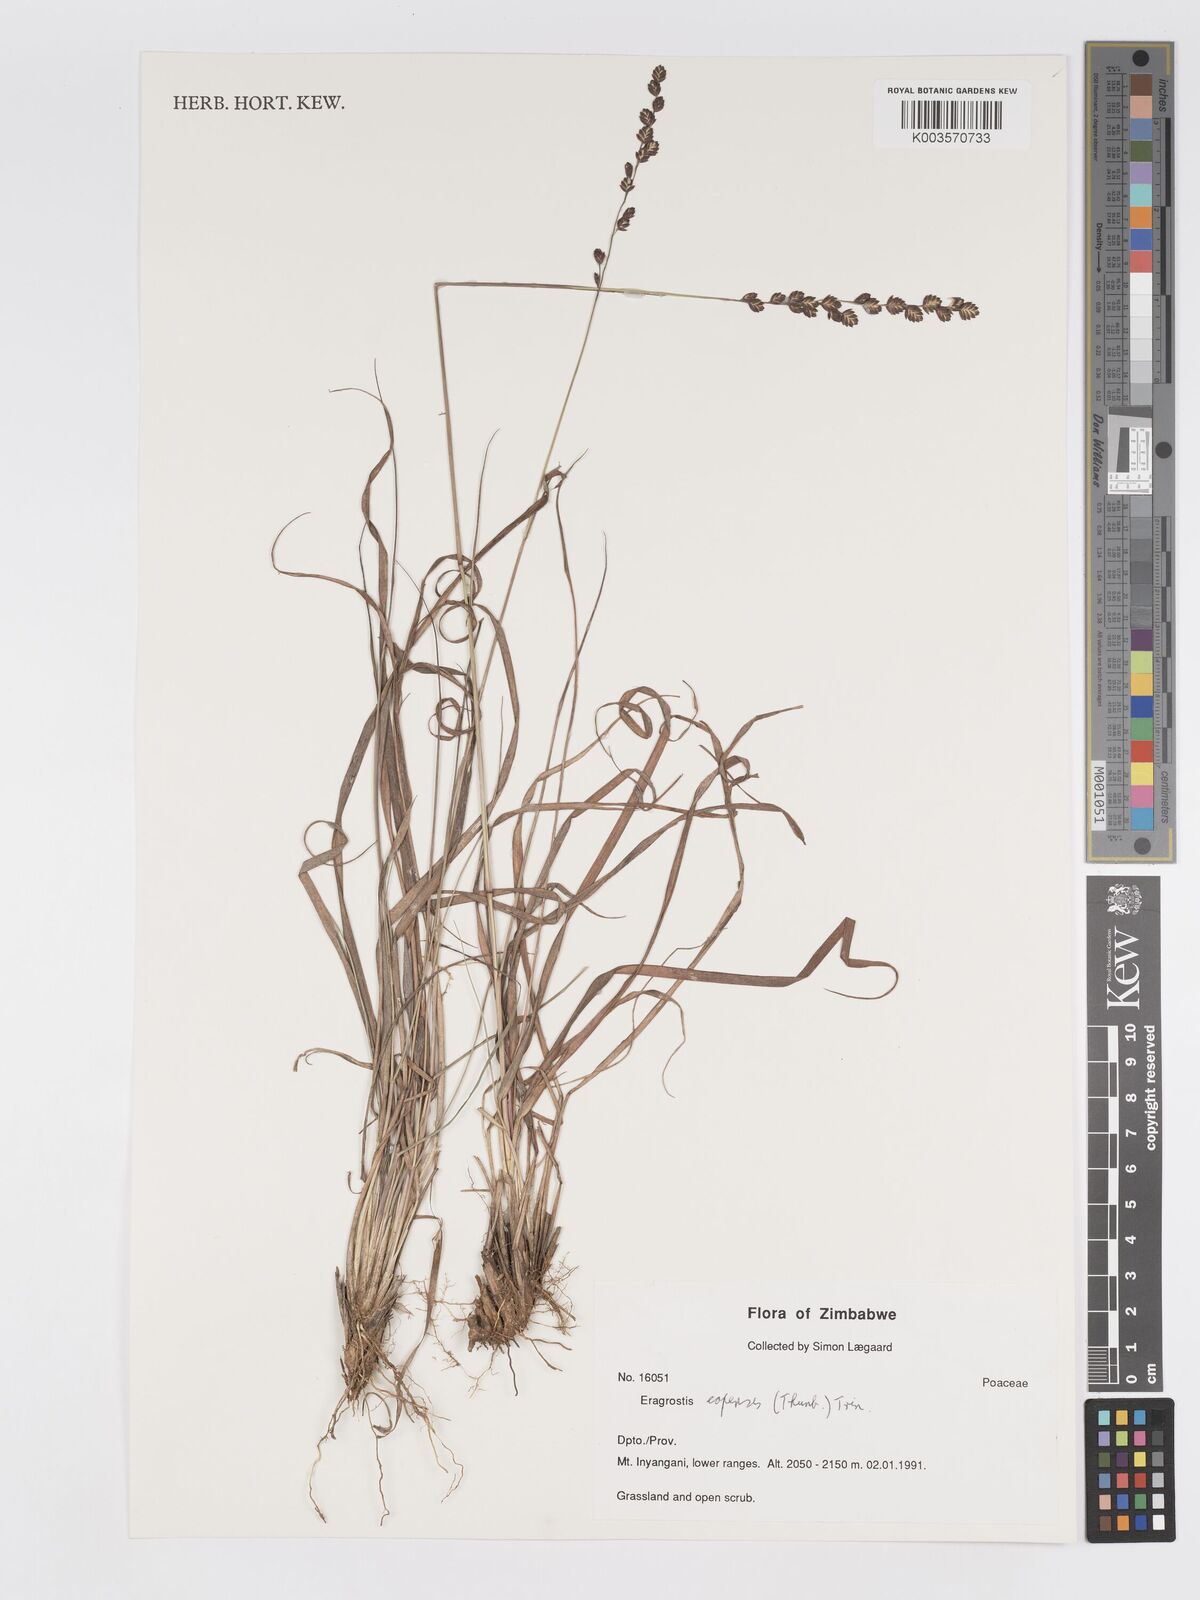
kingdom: Plantae
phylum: Tracheophyta
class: Liliopsida
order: Poales
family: Poaceae
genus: Eragrostis
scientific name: Eragrostis capensis
